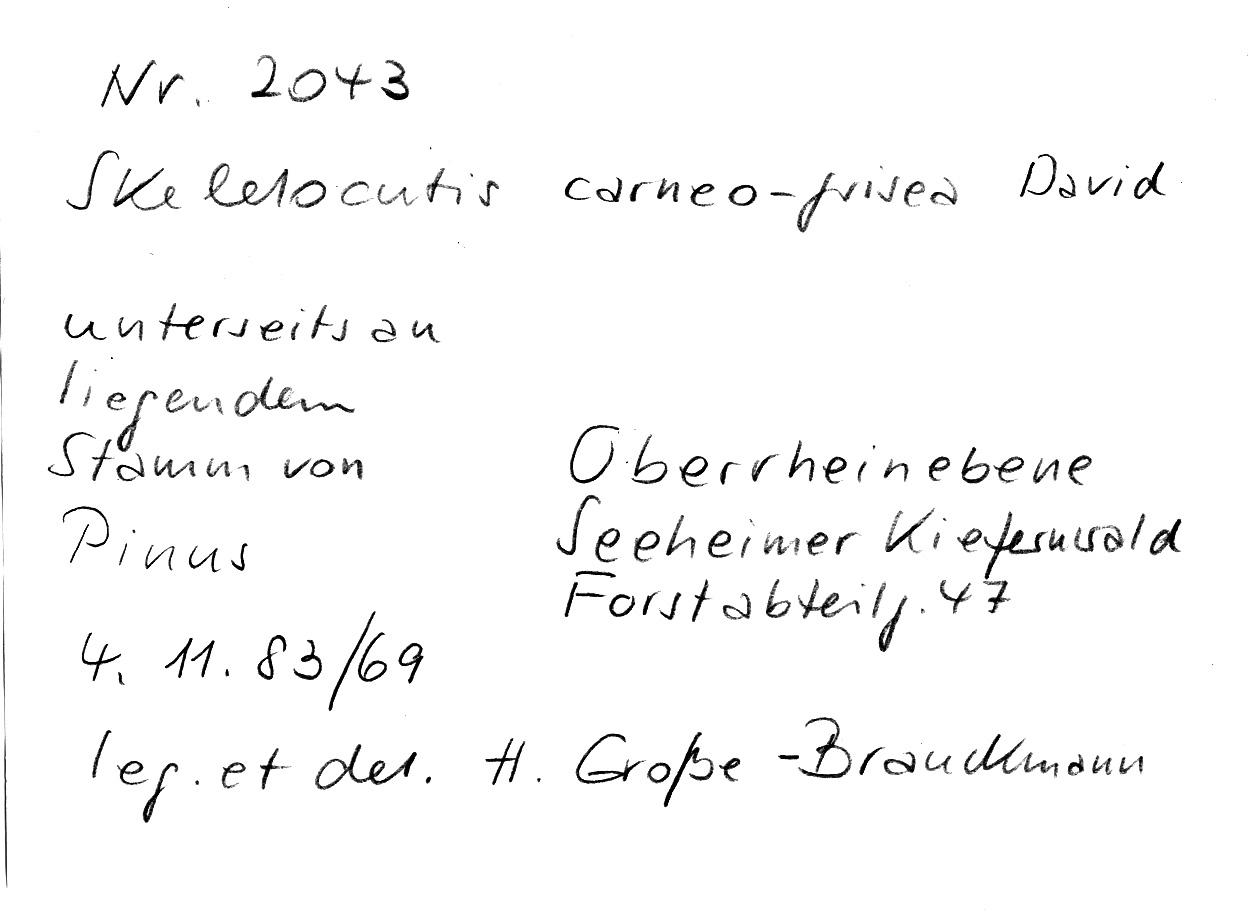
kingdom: Fungi
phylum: Basidiomycota
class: Agaricomycetes
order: Polyporales
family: Incrustoporiaceae
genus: Skeletocutis
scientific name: Skeletocutis carneogrisea
